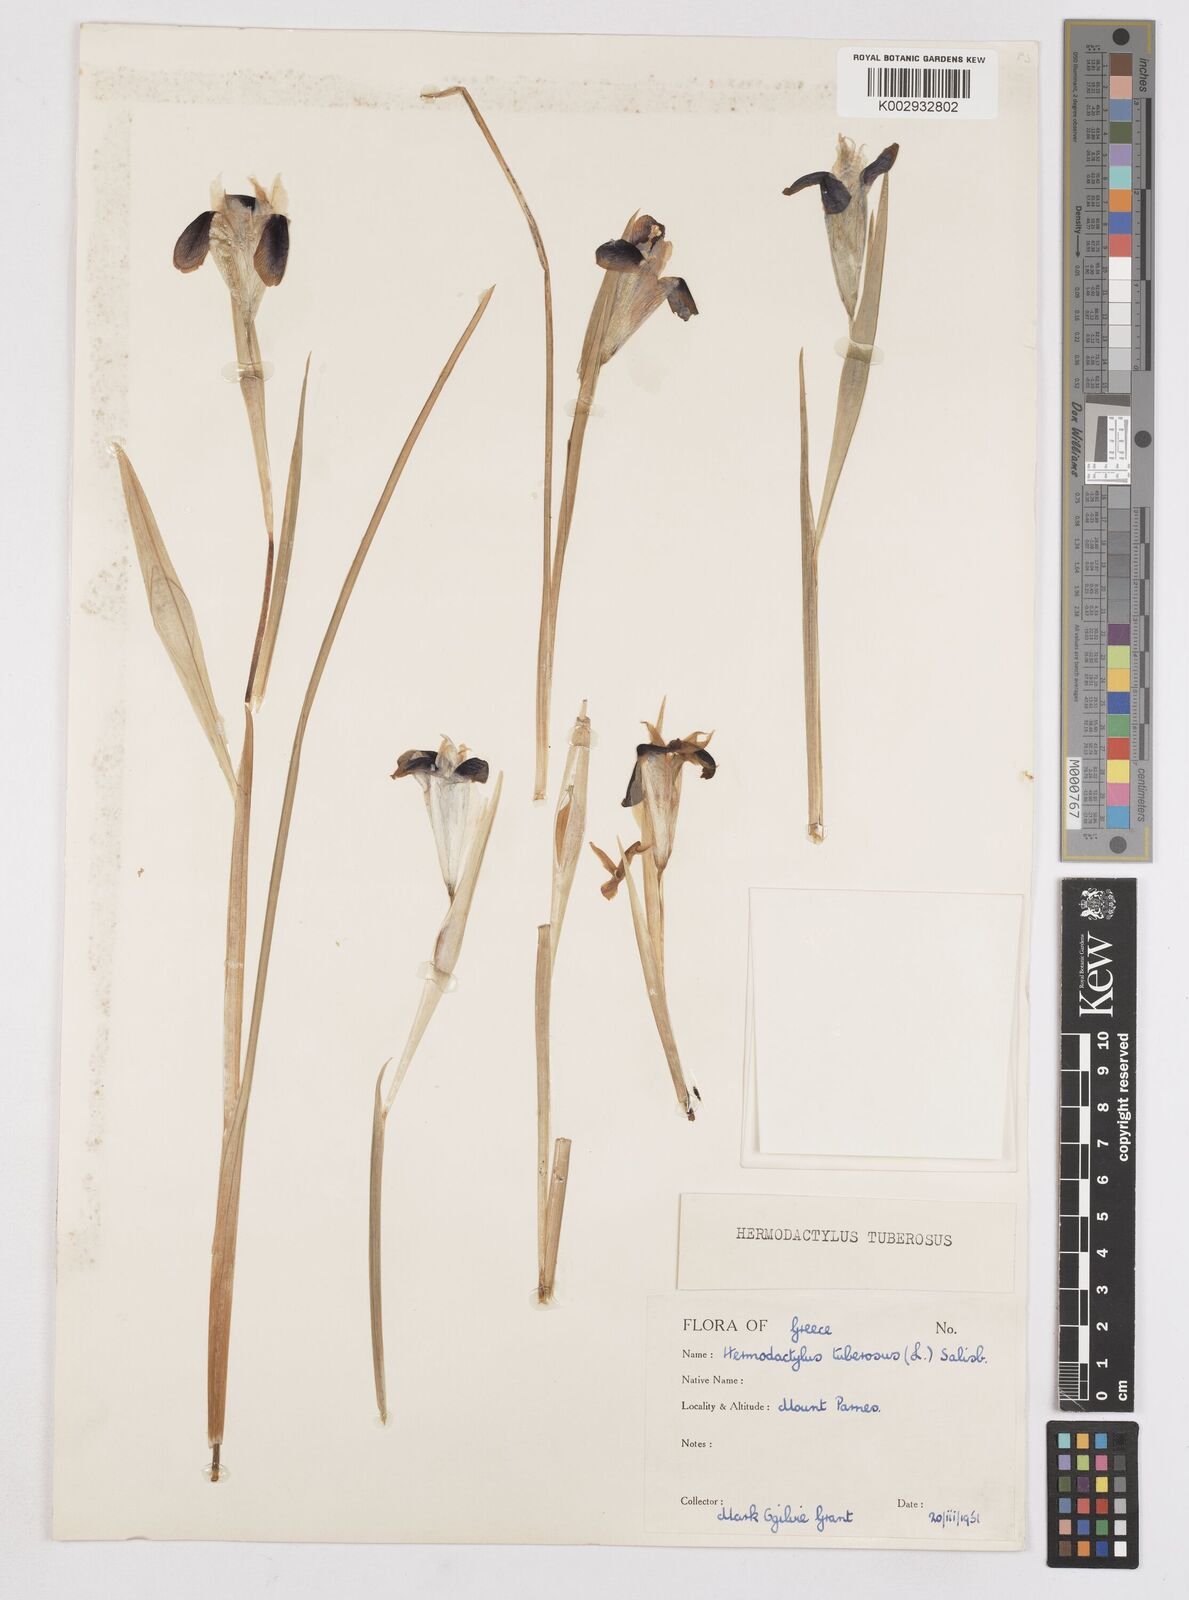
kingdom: Plantae
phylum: Tracheophyta
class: Liliopsida
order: Asparagales
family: Iridaceae
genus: Iris
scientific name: Iris tuberosa
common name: Snake's-head iris
